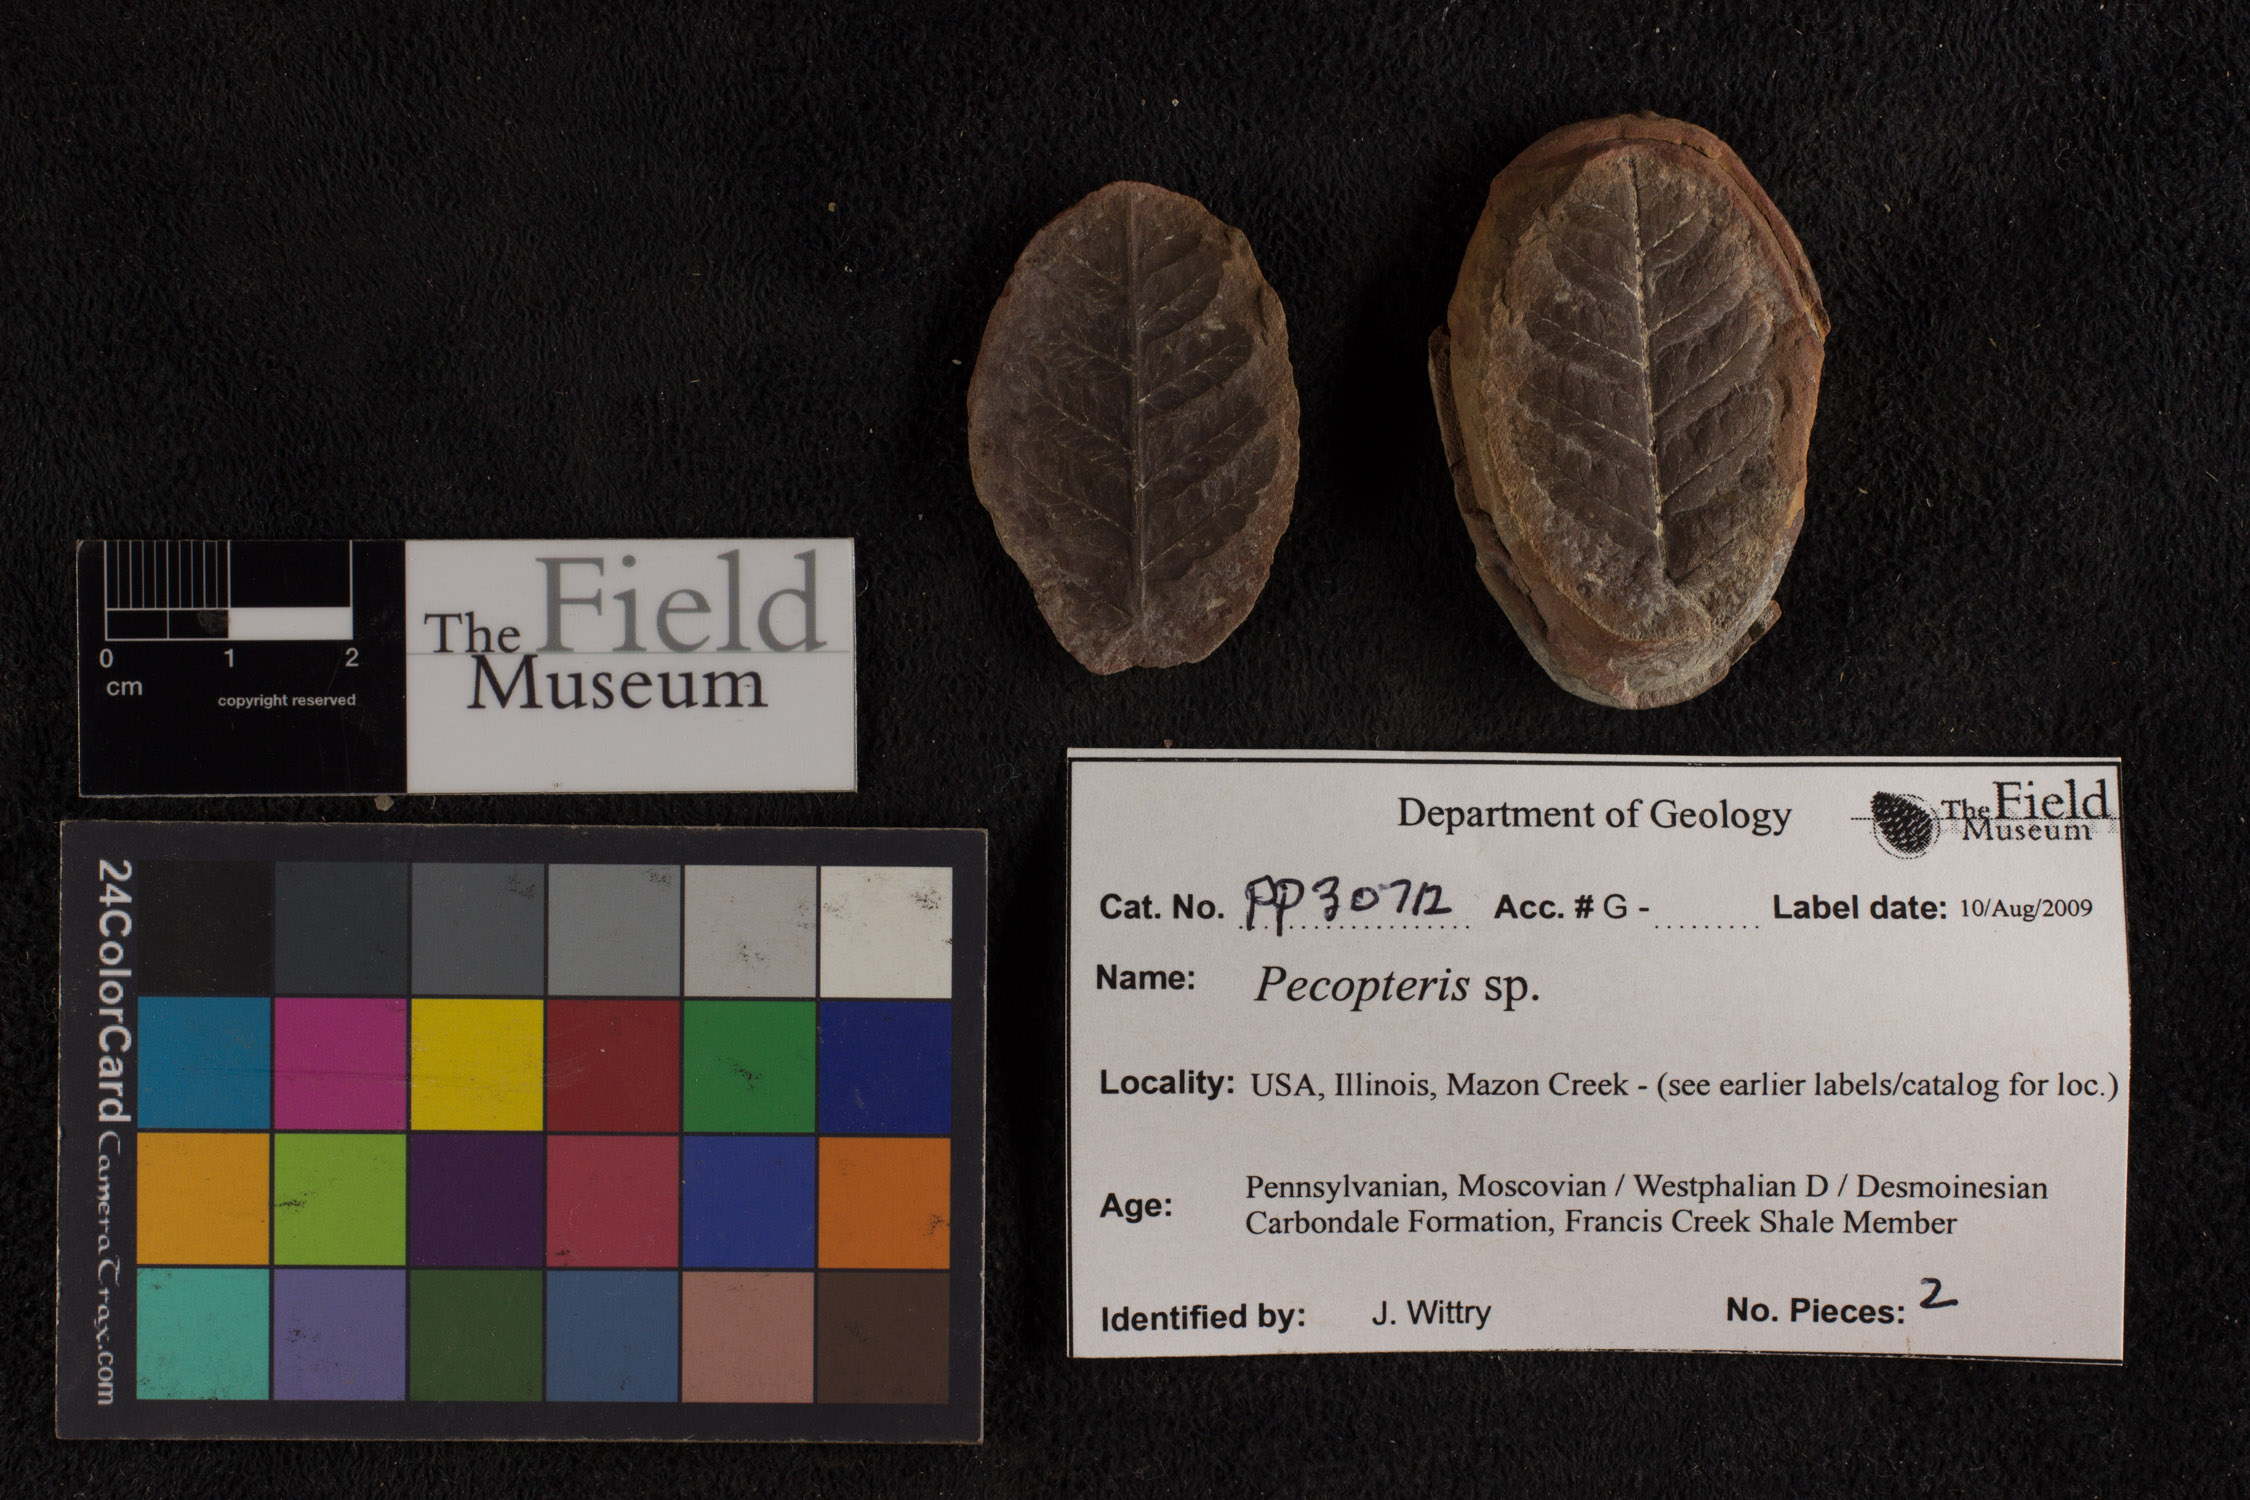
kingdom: Plantae
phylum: Tracheophyta
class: Polypodiopsida
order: Marattiales
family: Asterothecaceae
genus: Pecopteris
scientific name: Pecopteris
